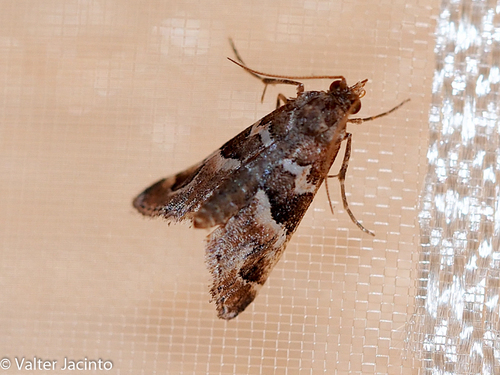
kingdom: Animalia
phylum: Arthropoda
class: Insecta
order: Lepidoptera
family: Pyralidae
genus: Hypotia
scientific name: Hypotia corticalis
